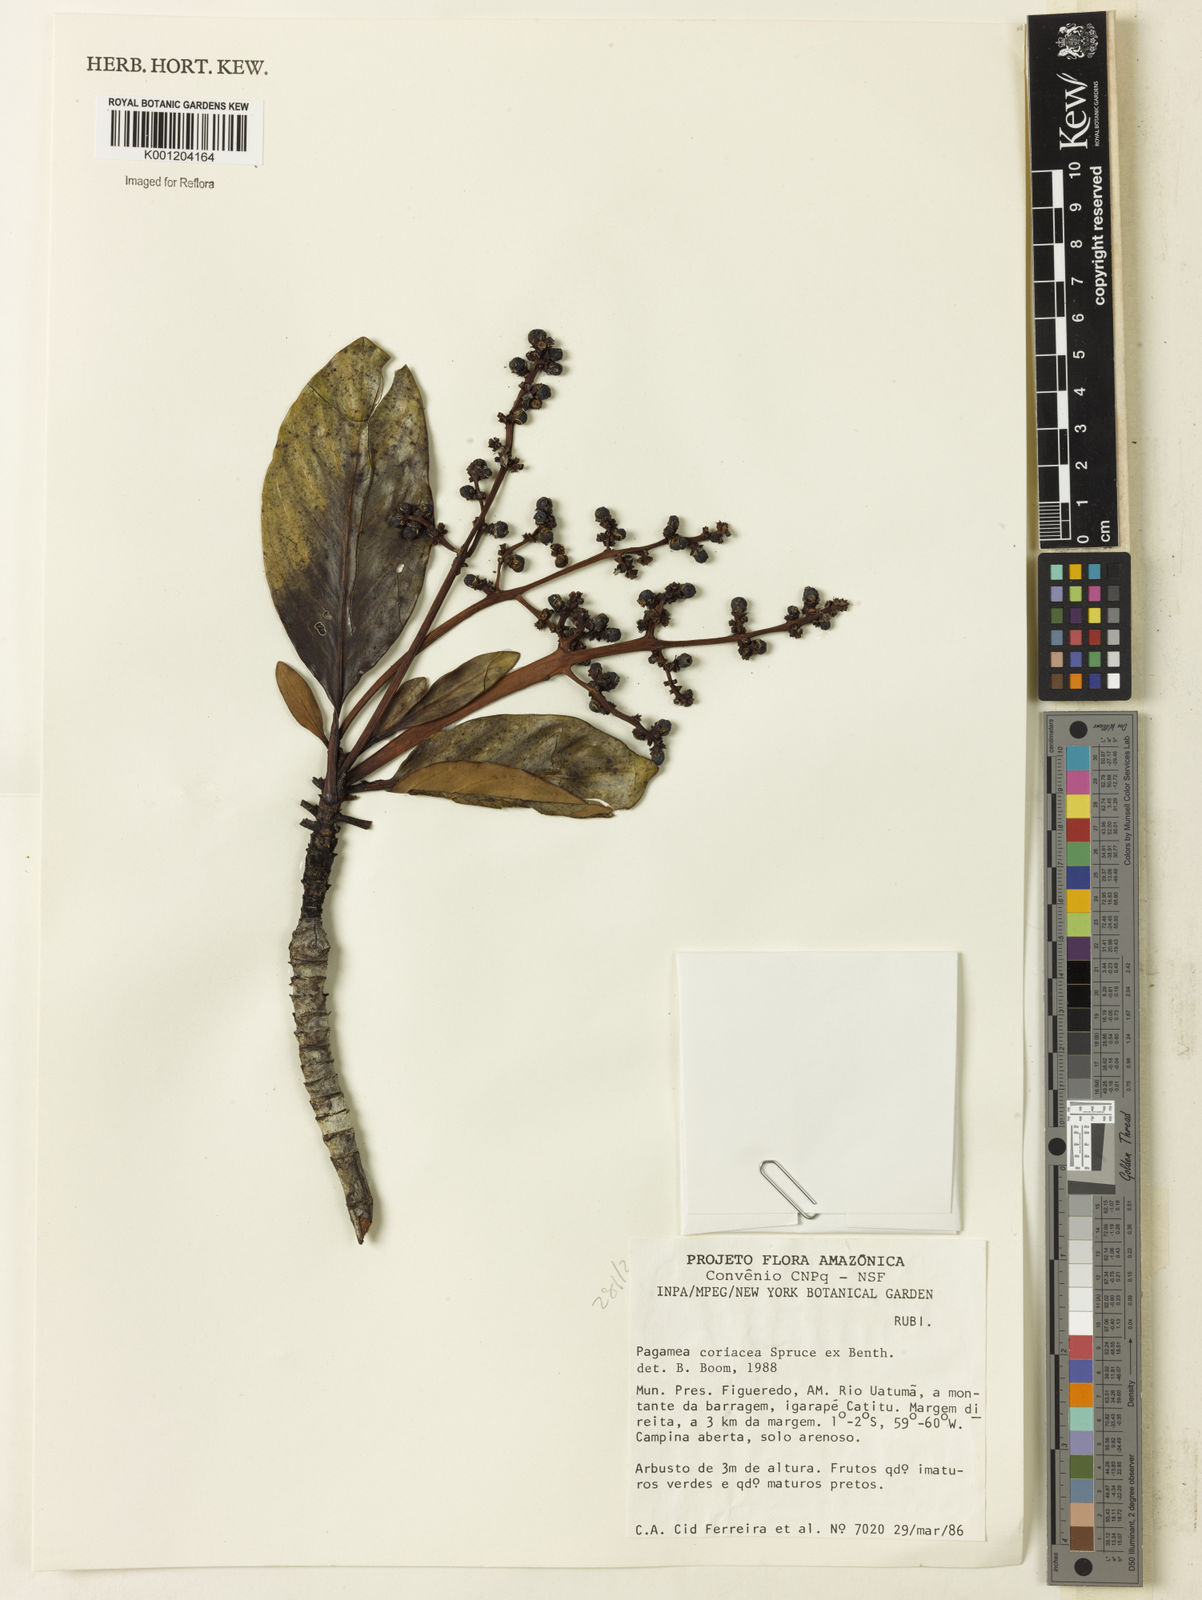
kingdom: Plantae
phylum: Tracheophyta
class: Magnoliopsida
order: Gentianales
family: Rubiaceae
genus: Pagamea
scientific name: Pagamea coriacea
